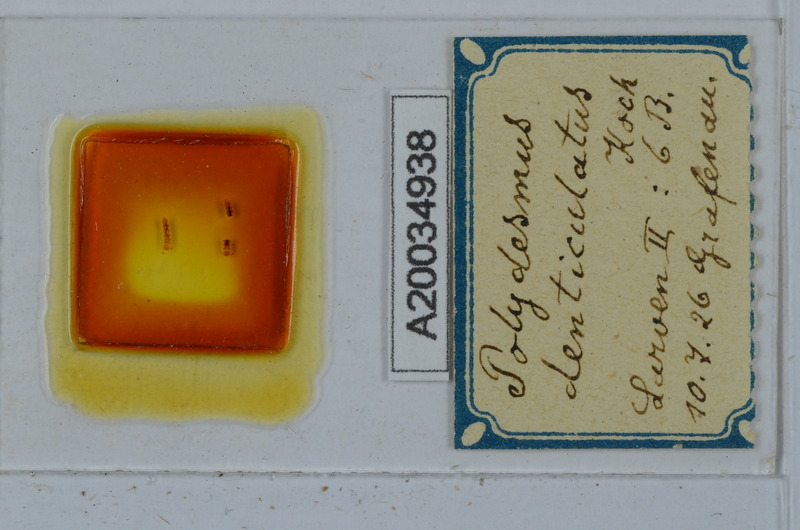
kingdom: Animalia
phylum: Arthropoda
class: Diplopoda
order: Polydesmida
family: Polydesmidae
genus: Polydesmus
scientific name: Polydesmus denticulatus
